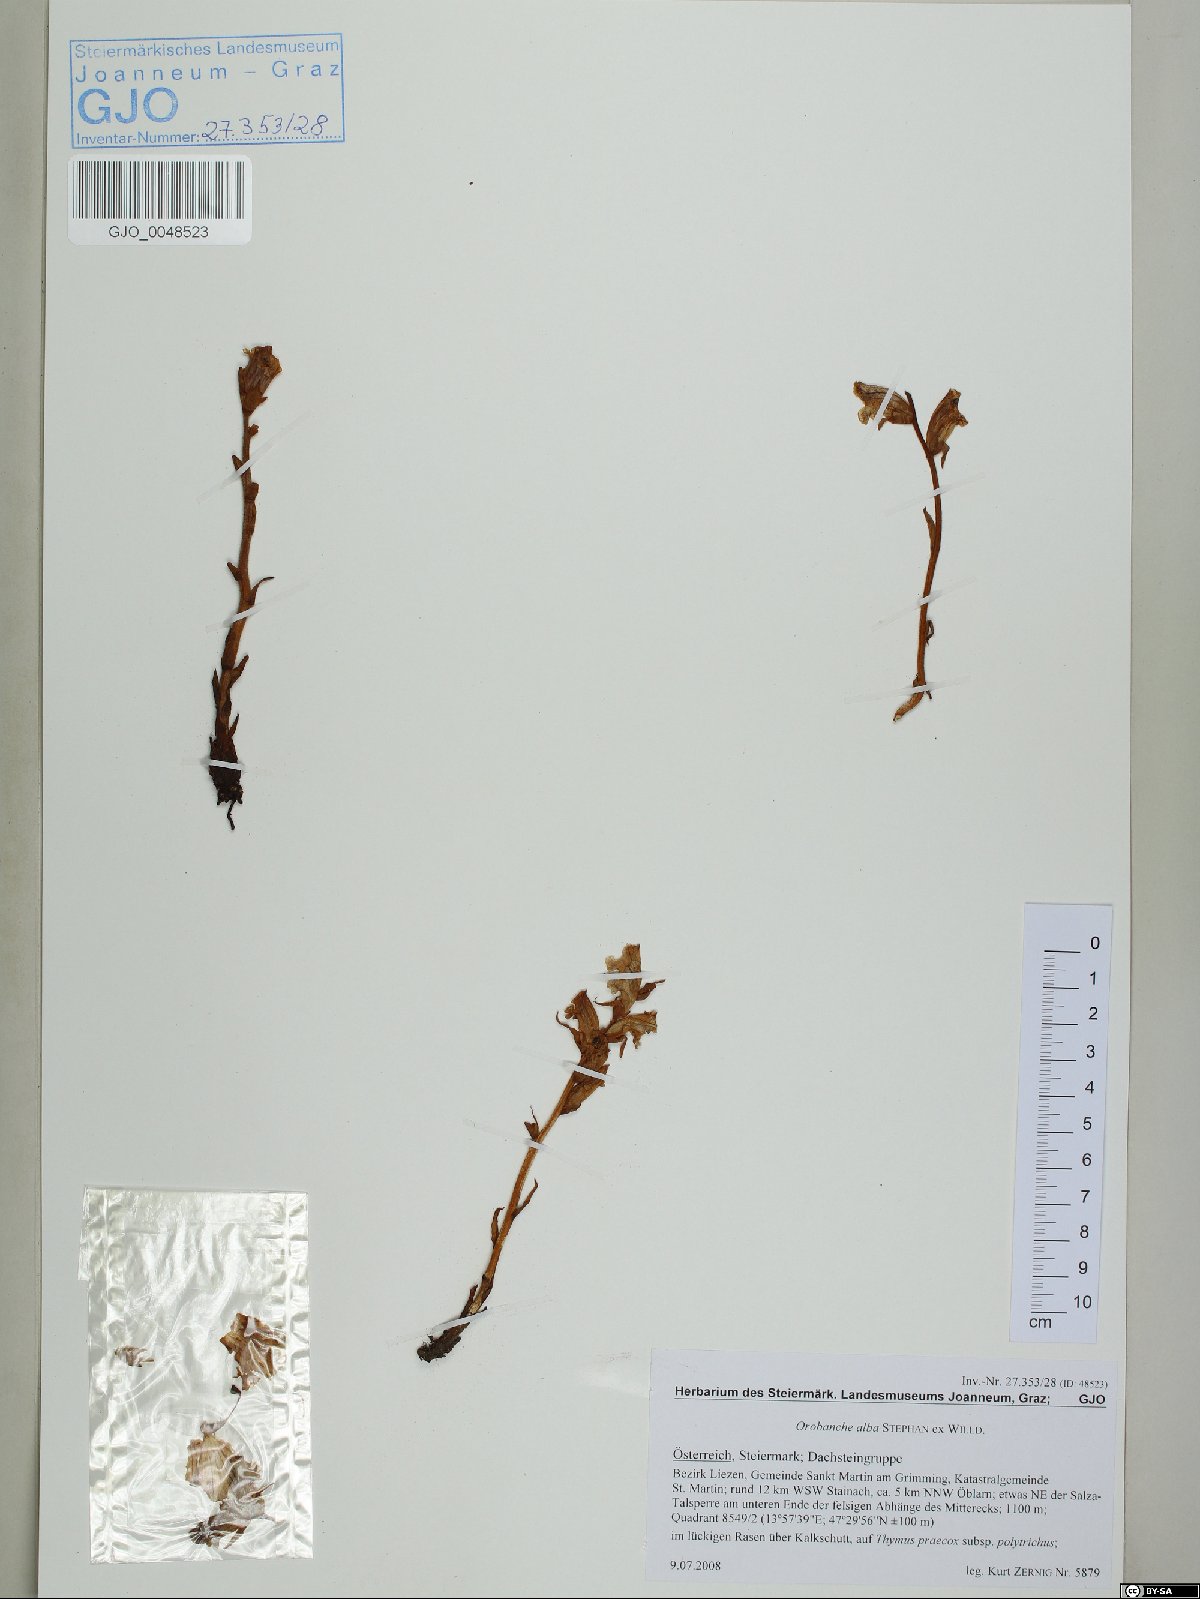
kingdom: Plantae
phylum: Tracheophyta
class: Magnoliopsida
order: Lamiales
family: Orobanchaceae
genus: Orobanche
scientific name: Orobanche alba
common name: Thyme broomrape
